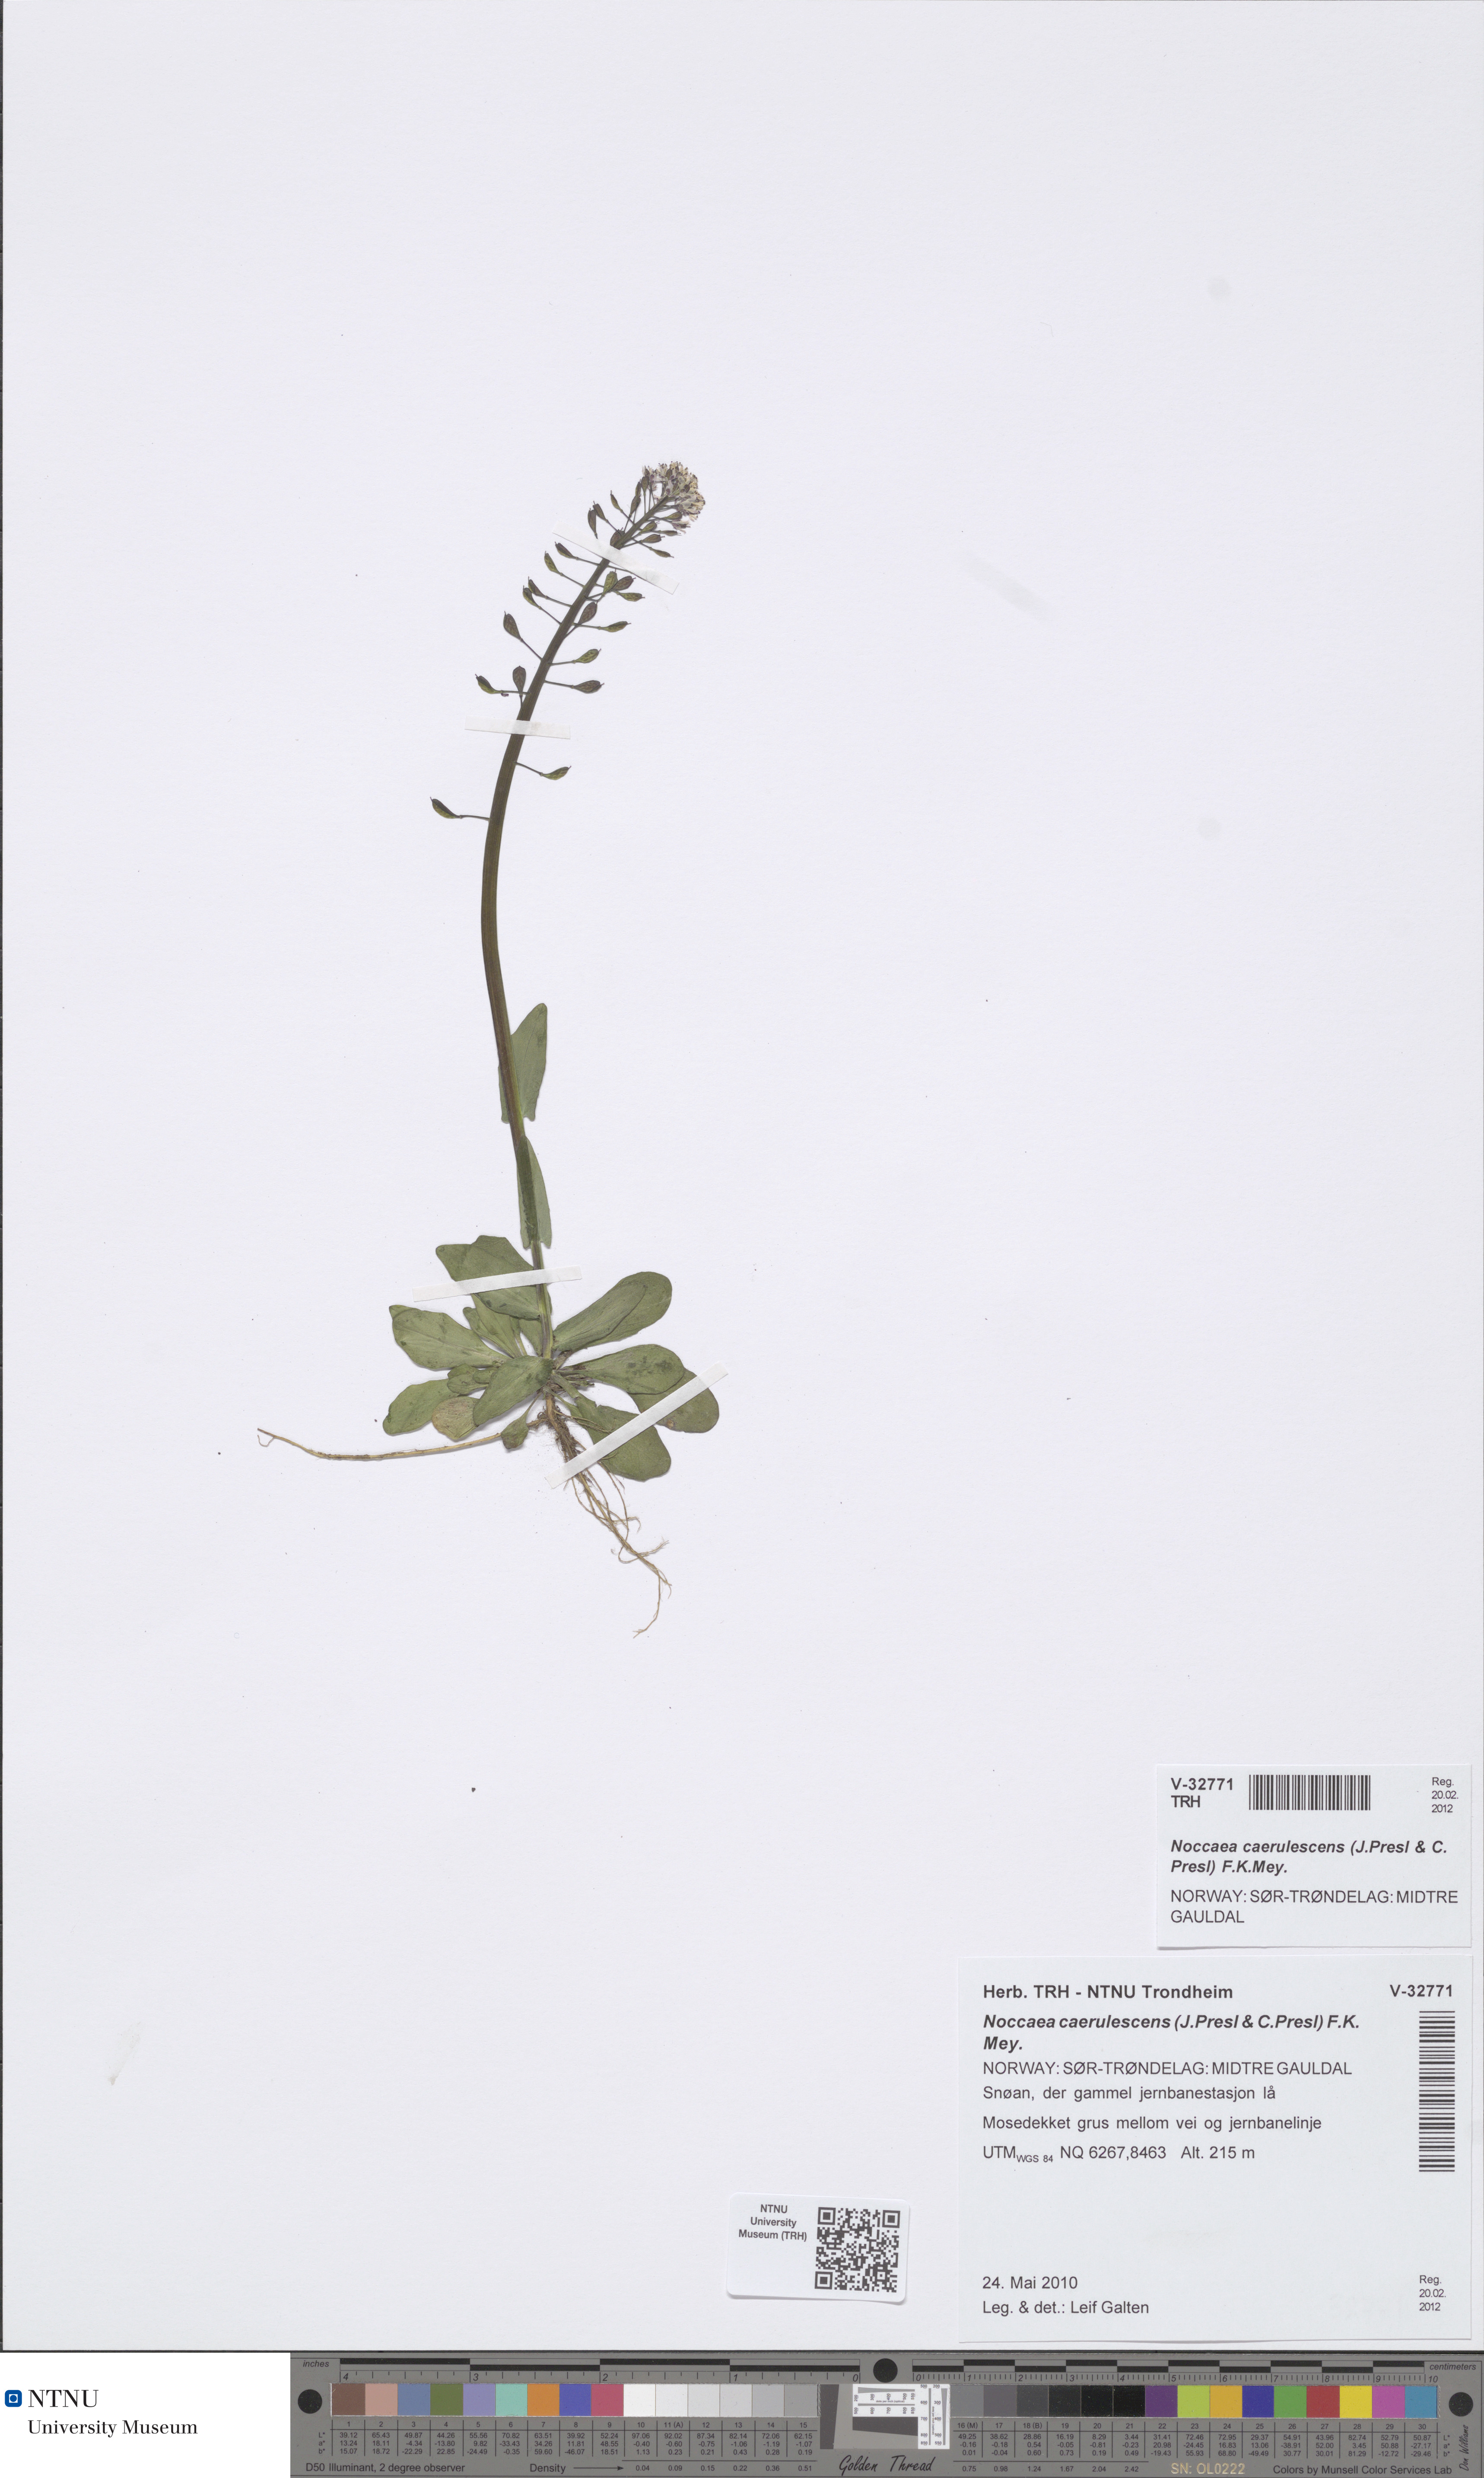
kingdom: Plantae
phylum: Tracheophyta
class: Magnoliopsida
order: Brassicales
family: Brassicaceae
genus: Noccaea
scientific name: Noccaea caerulescens
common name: Alpine pennycress
